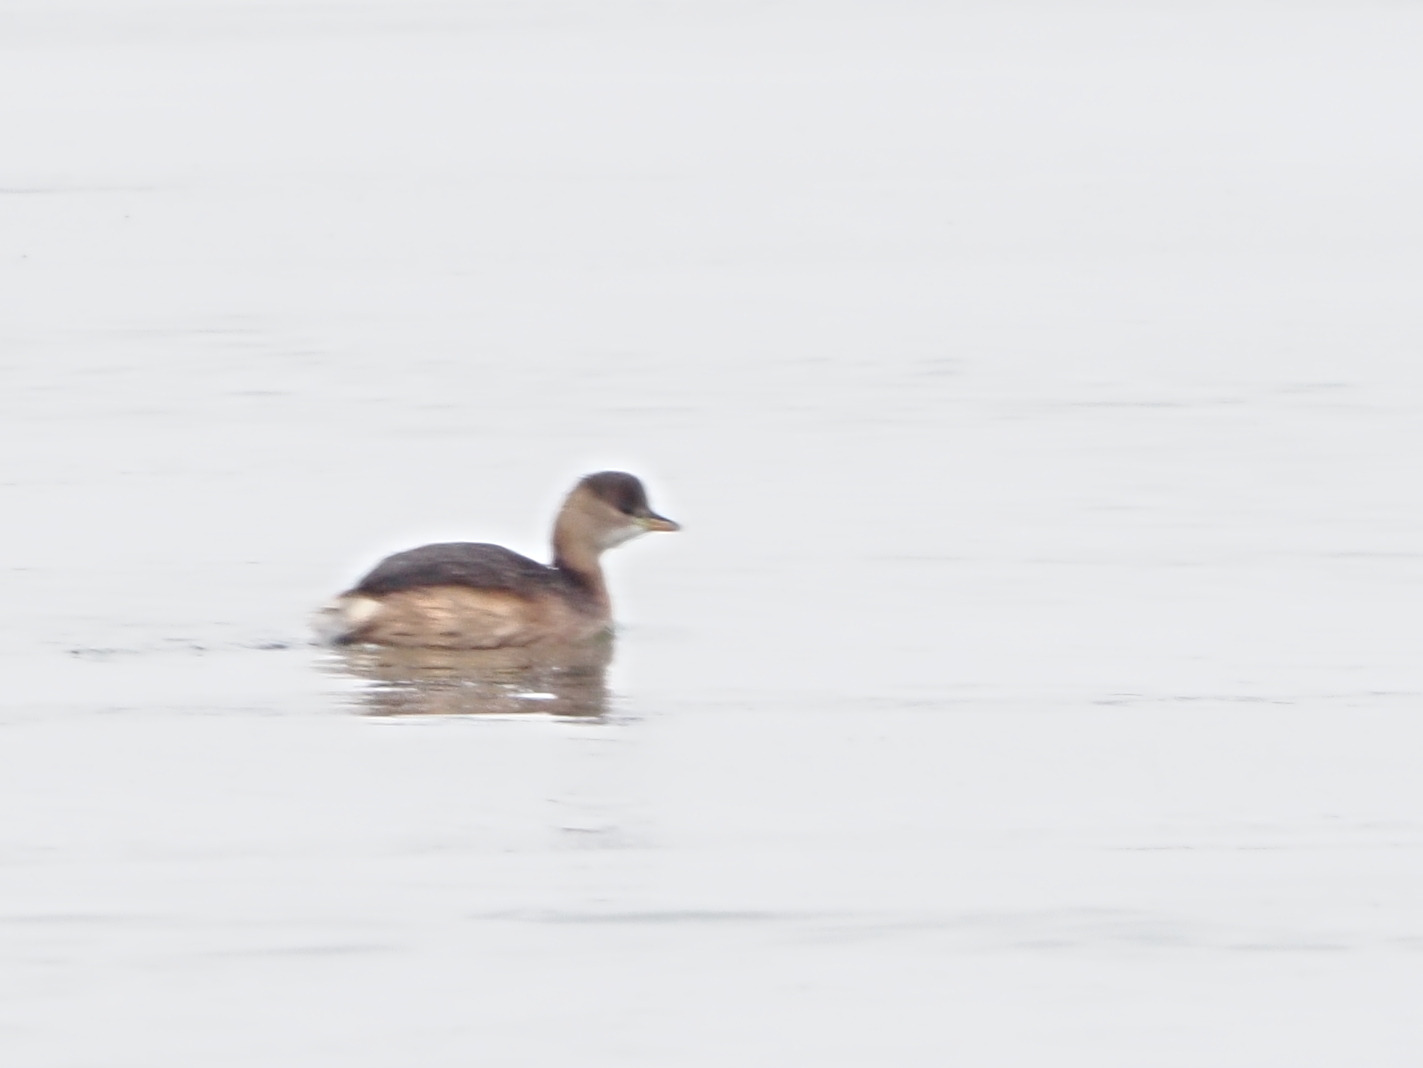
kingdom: Animalia
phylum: Chordata
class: Aves
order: Podicipediformes
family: Podicipedidae
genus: Tachybaptus
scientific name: Tachybaptus ruficollis
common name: Lille lappedykker
